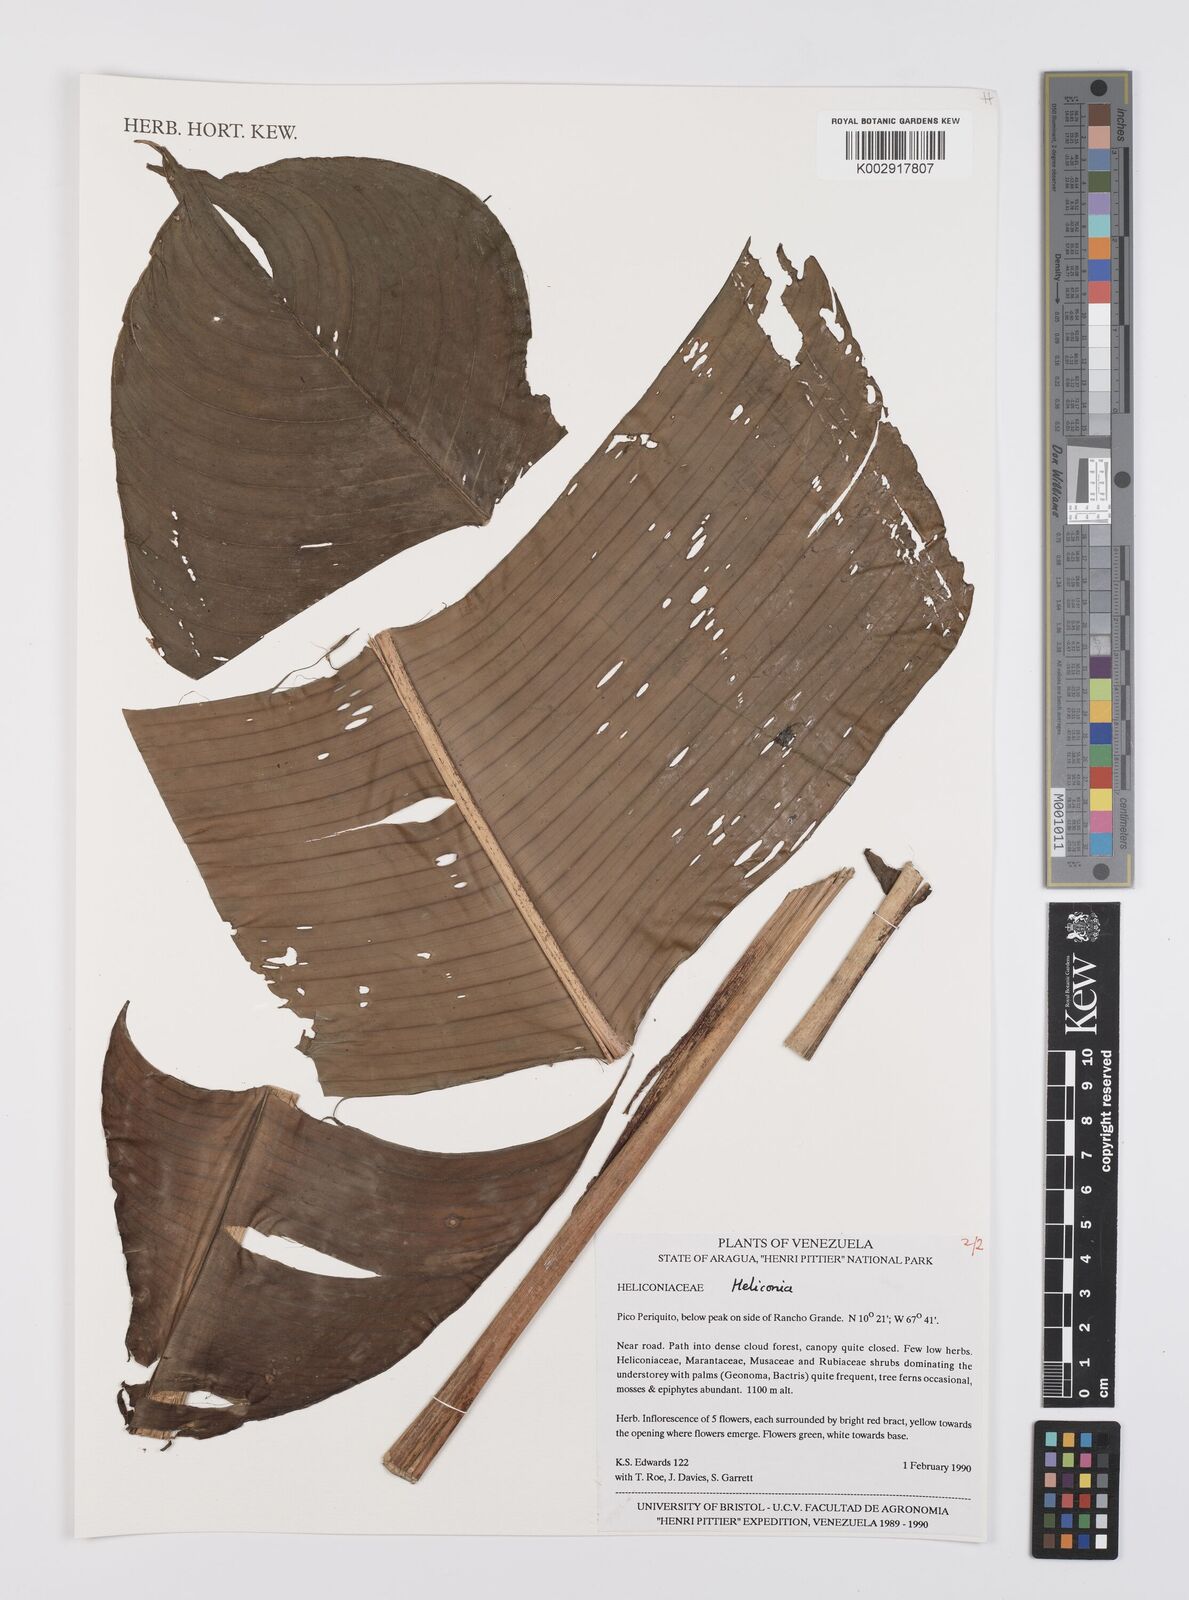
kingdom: Plantae
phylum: Tracheophyta
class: Liliopsida
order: Zingiberales
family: Heliconiaceae
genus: Heliconia
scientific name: Heliconia
